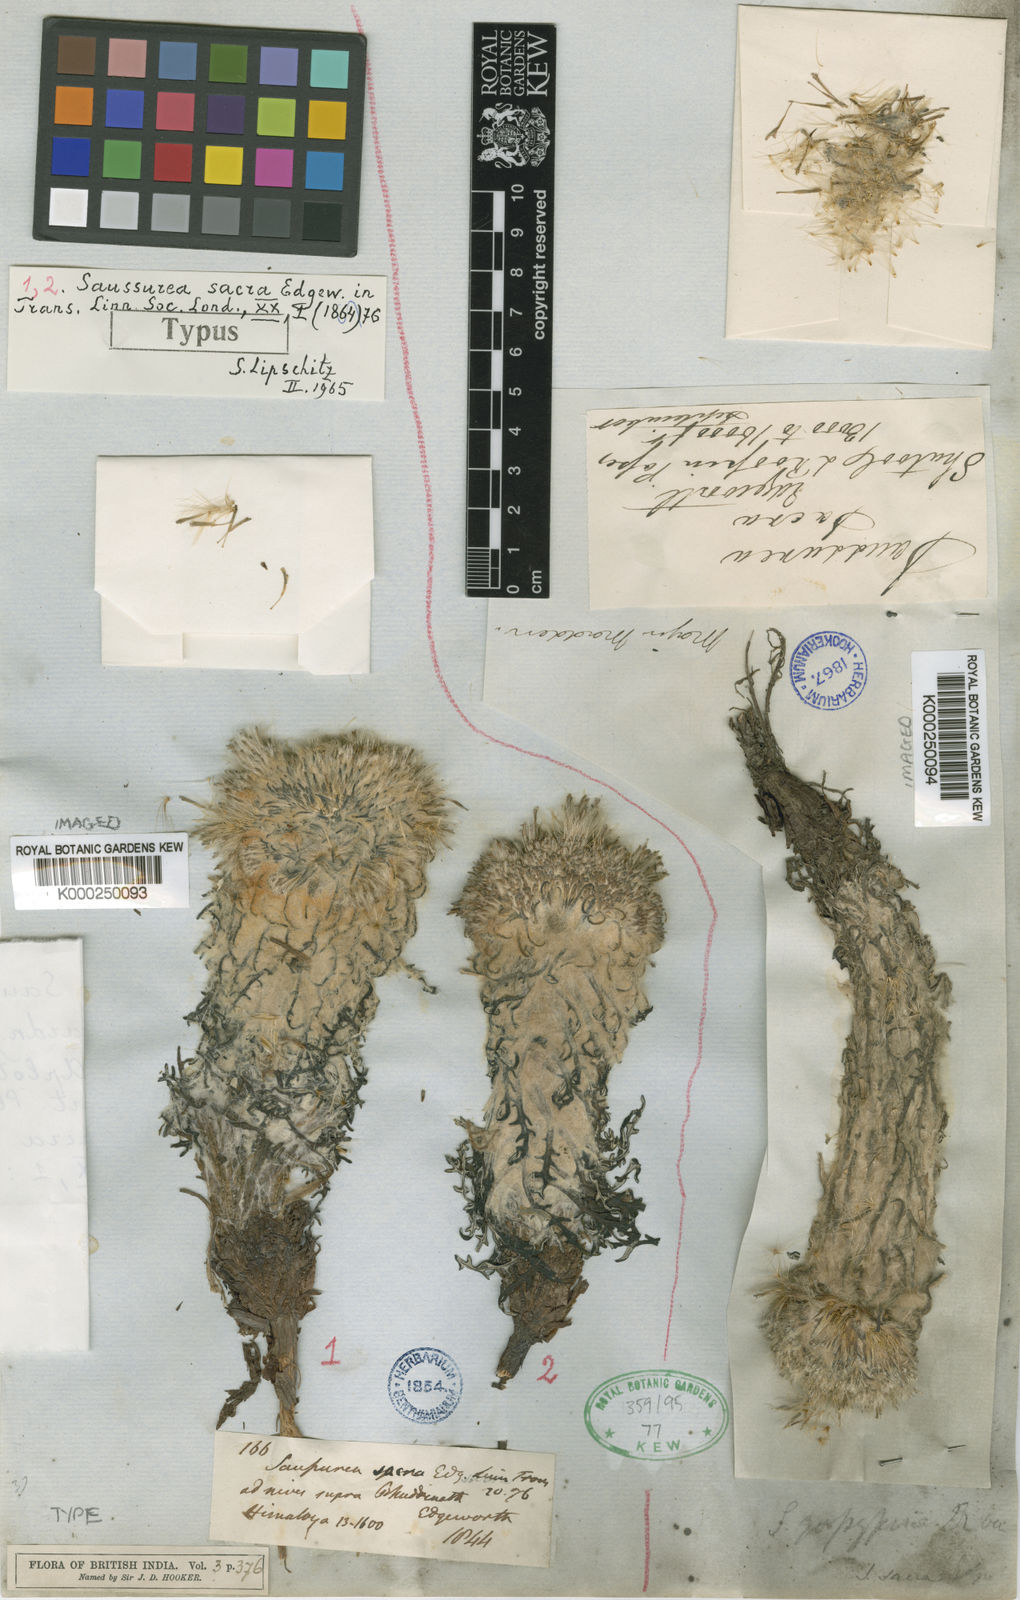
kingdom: Plantae
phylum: Tracheophyta
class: Magnoliopsida
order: Asterales
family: Asteraceae
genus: Saussurea
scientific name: Saussurea simpsoniana
